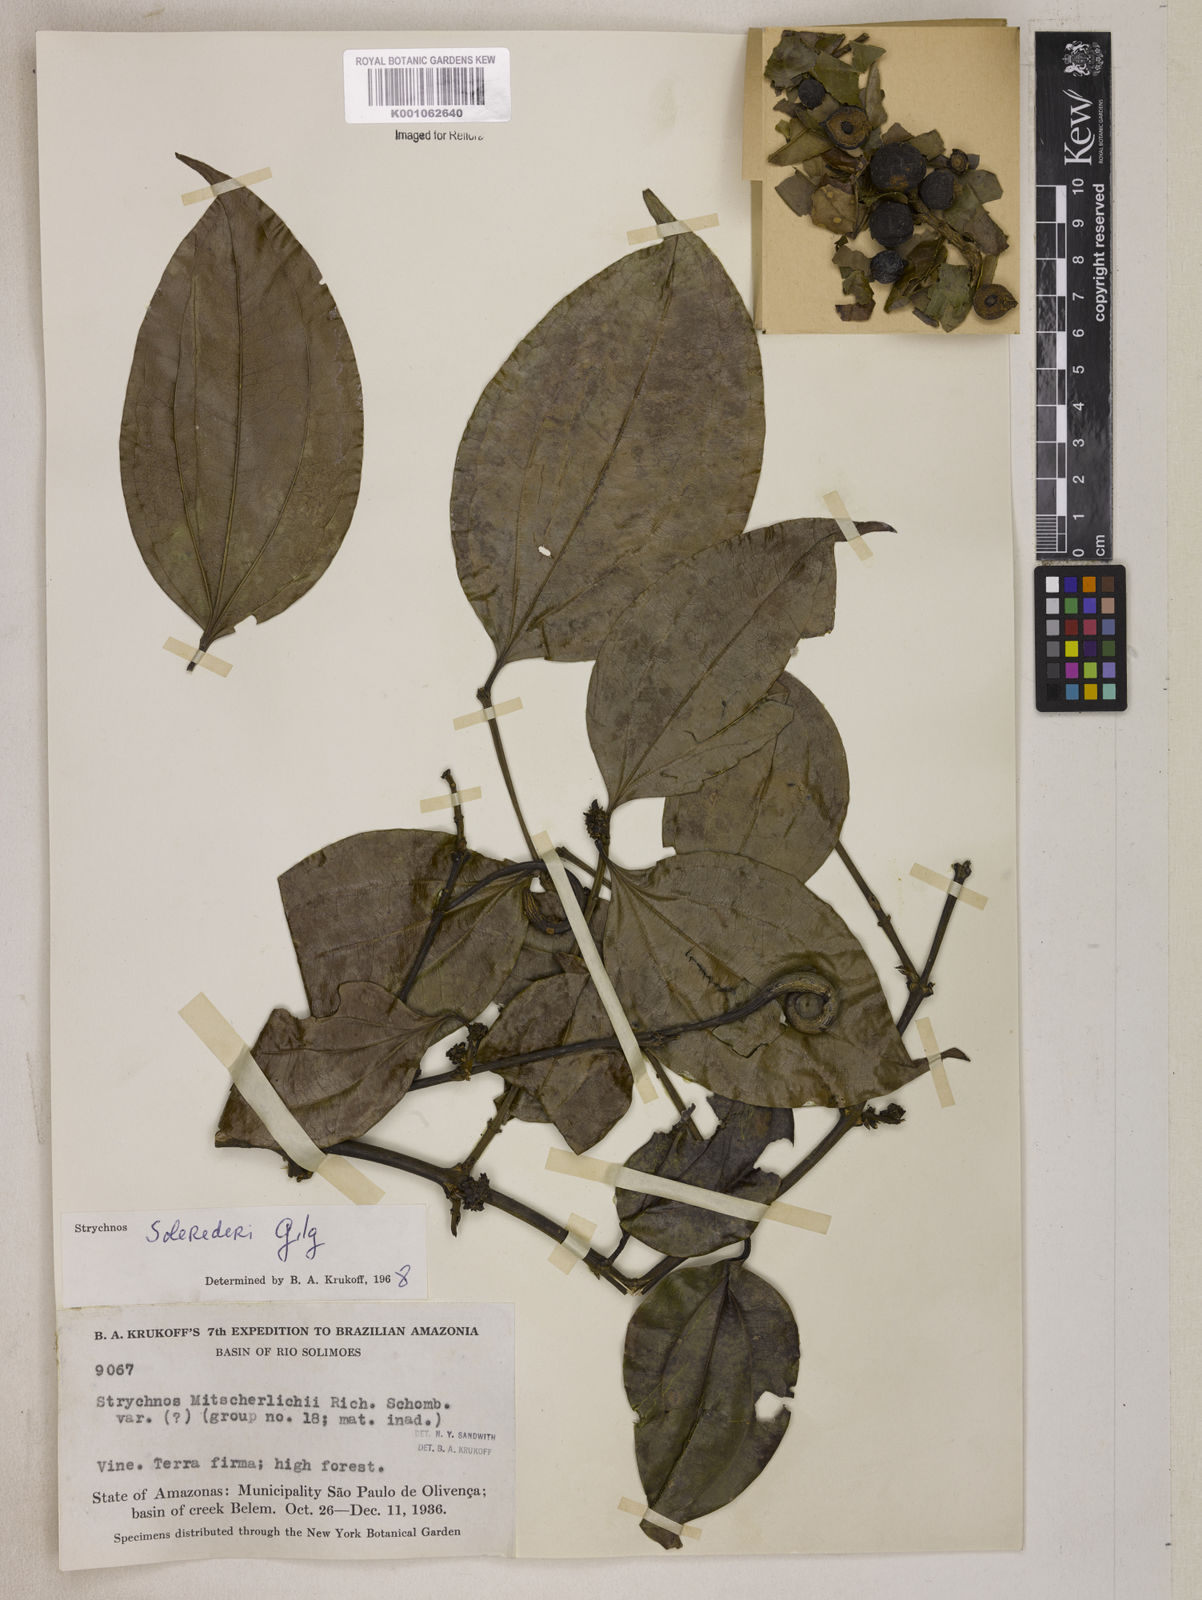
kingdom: Plantae
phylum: Tracheophyta
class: Magnoliopsida
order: Gentianales
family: Loganiaceae
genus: Strychnos
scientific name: Strychnos solerederi
